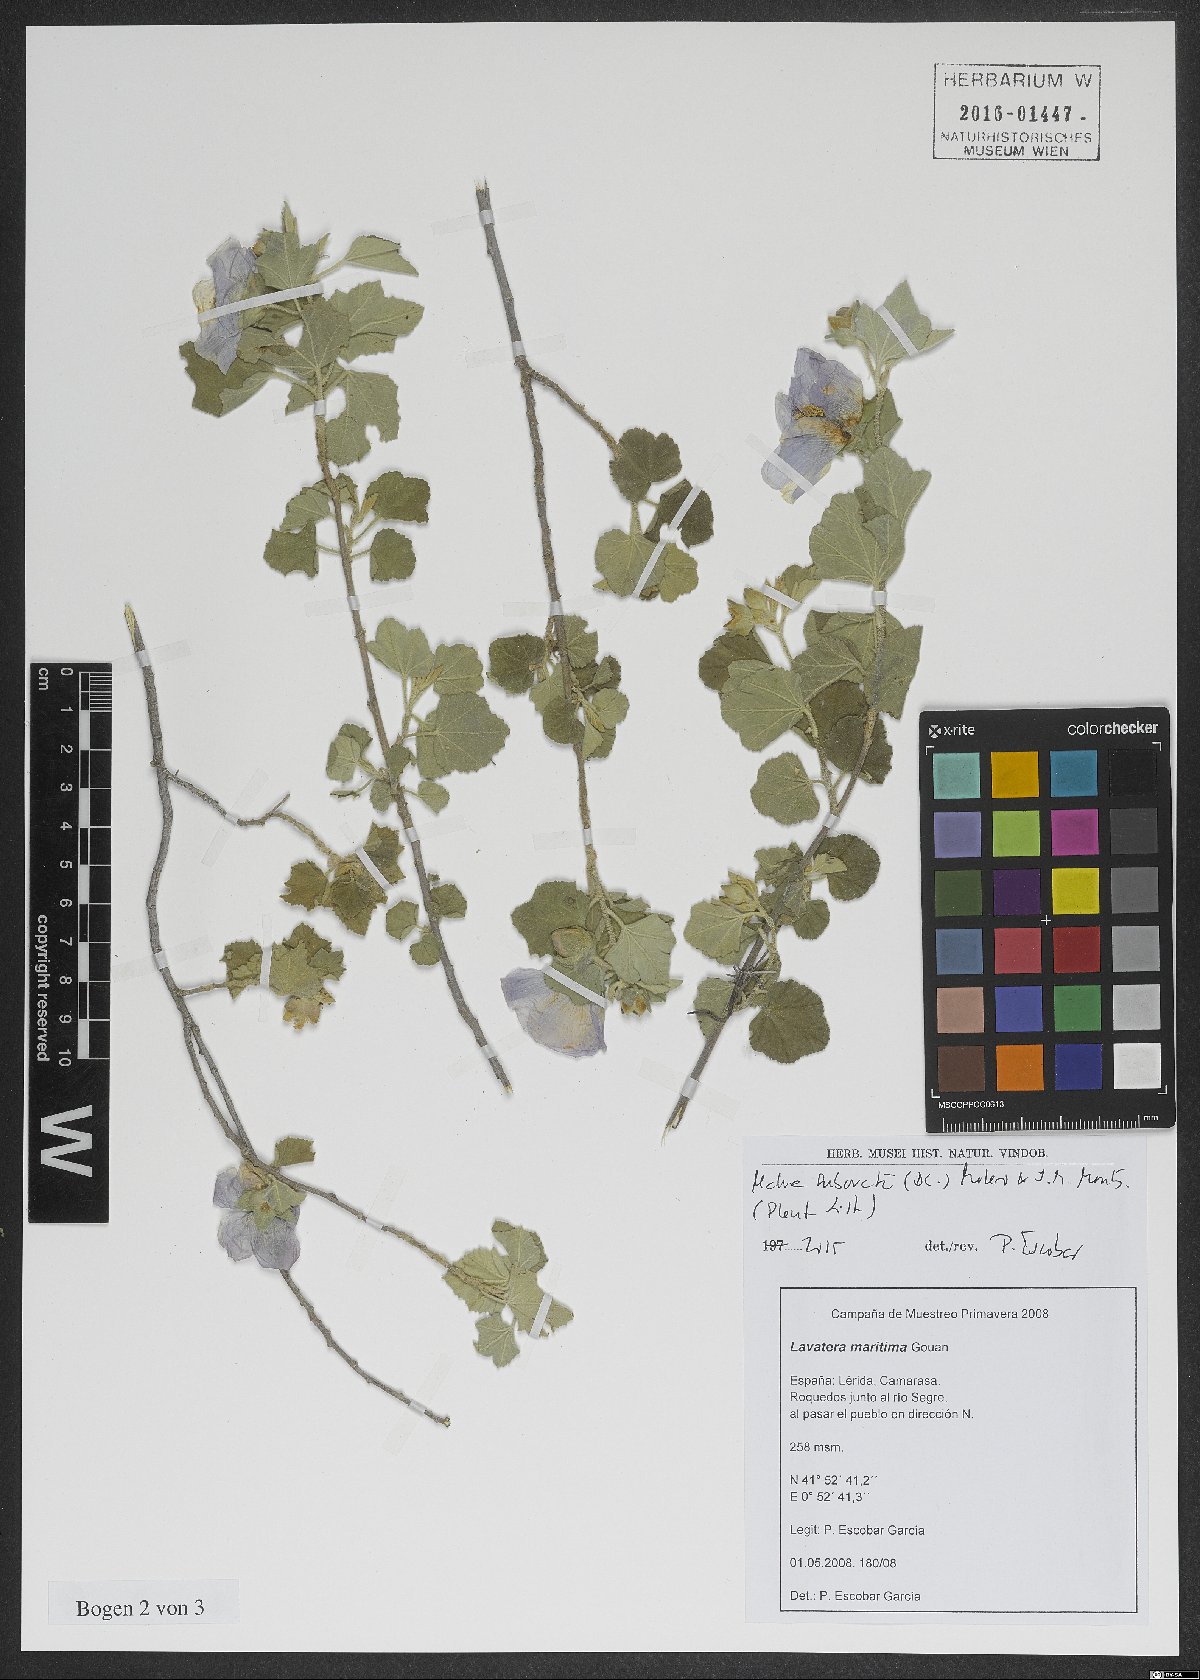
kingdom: Plantae
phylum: Tracheophyta
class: Magnoliopsida
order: Malvales
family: Malvaceae
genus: Malva
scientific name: Malva subovata
